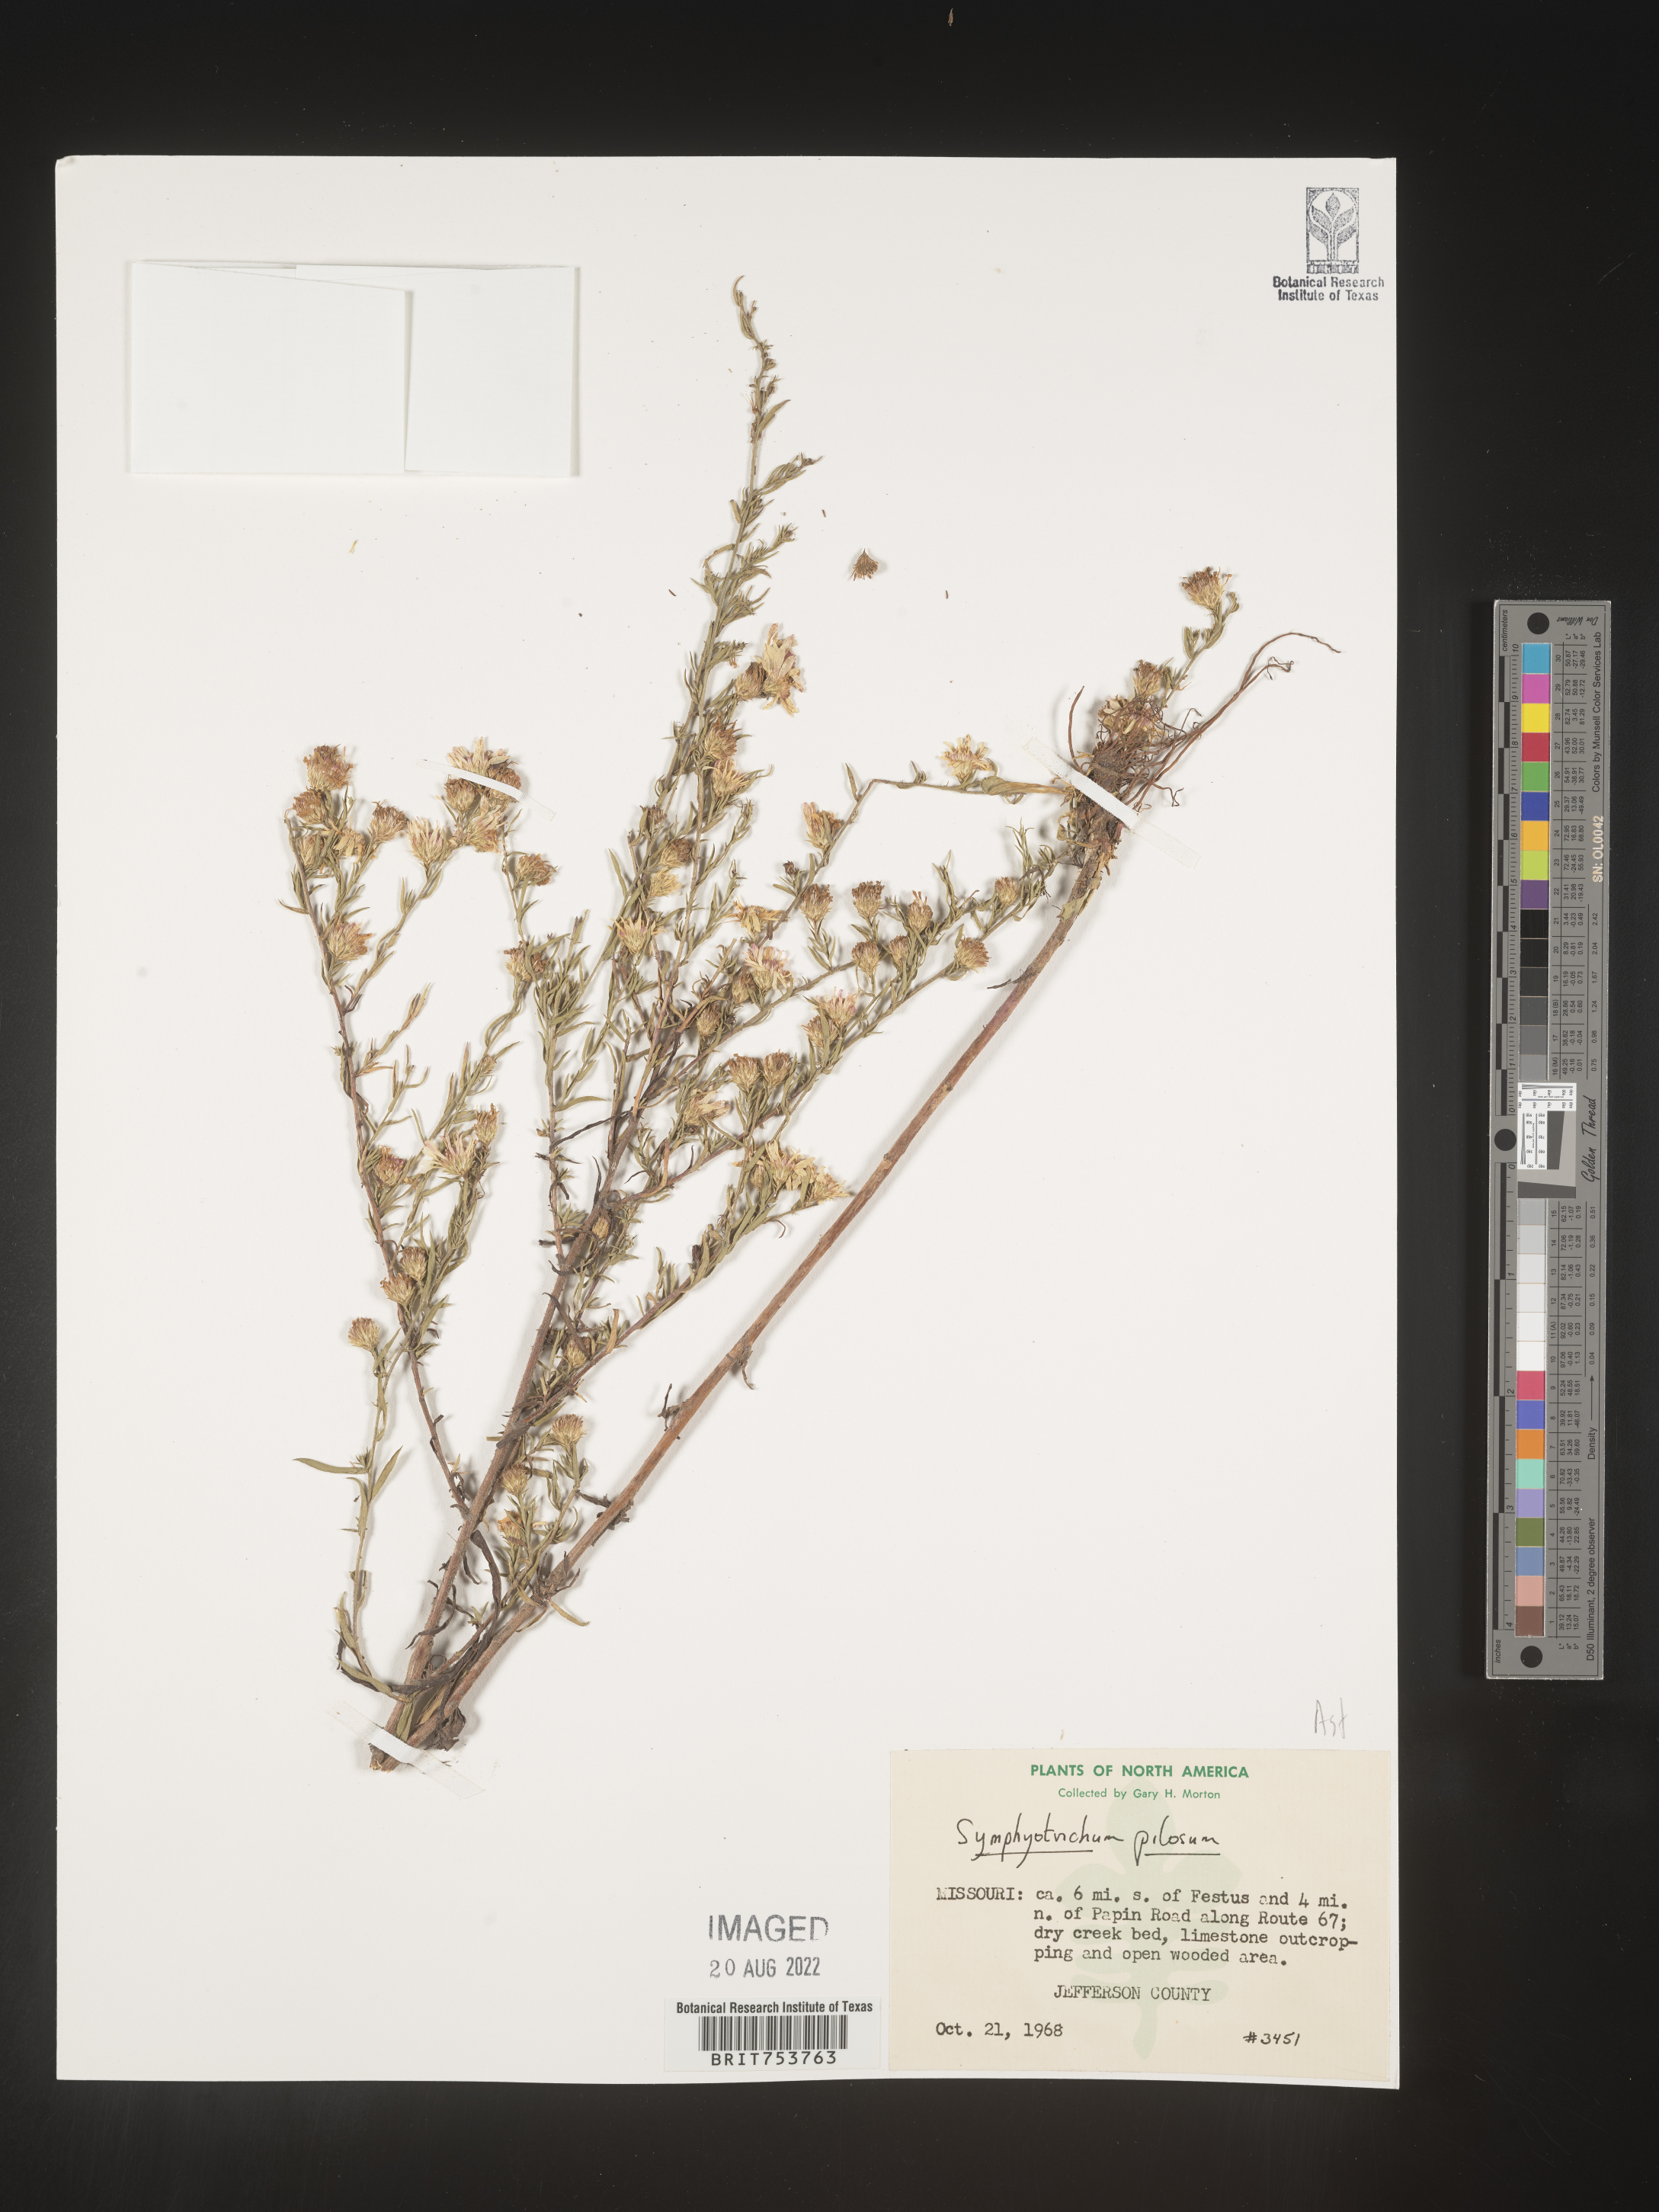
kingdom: Plantae
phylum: Tracheophyta
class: Magnoliopsida
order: Asterales
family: Asteraceae
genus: Symphyotrichum
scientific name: Symphyotrichum pilosum
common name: Awl aster
